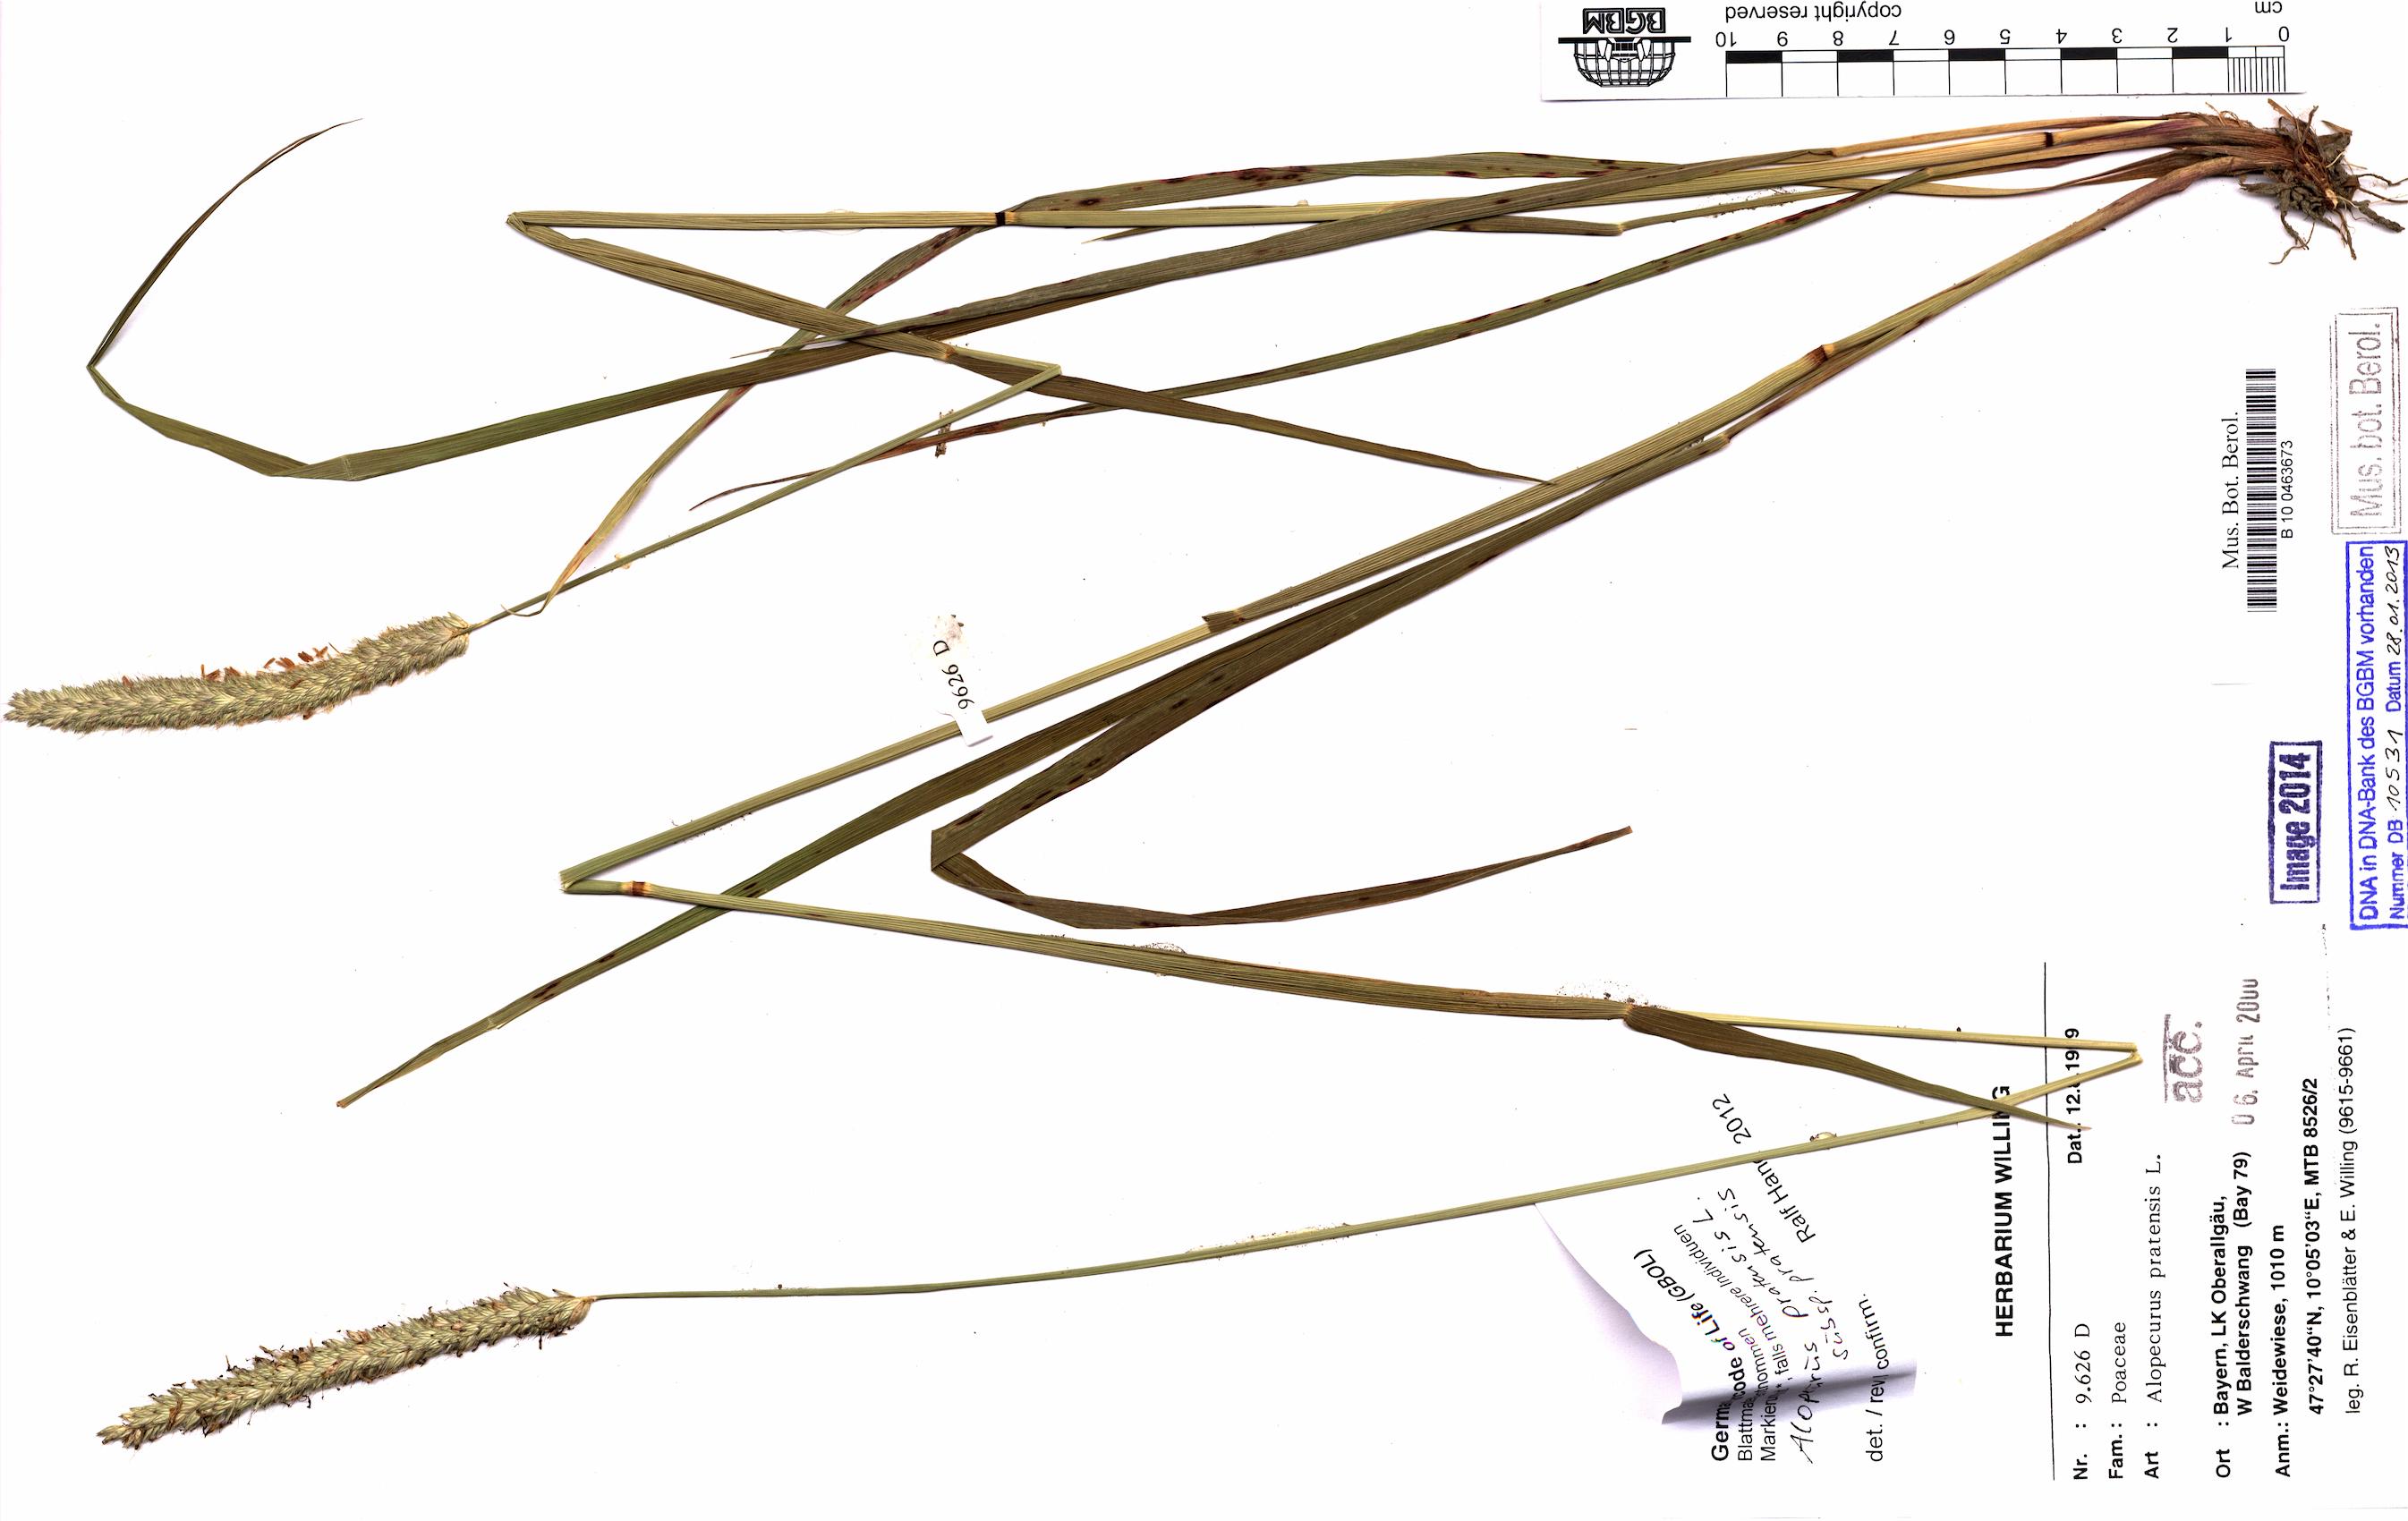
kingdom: Plantae
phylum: Tracheophyta
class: Liliopsida
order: Poales
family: Poaceae
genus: Alopecurus
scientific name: Alopecurus pratensis
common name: Meadow foxtail
